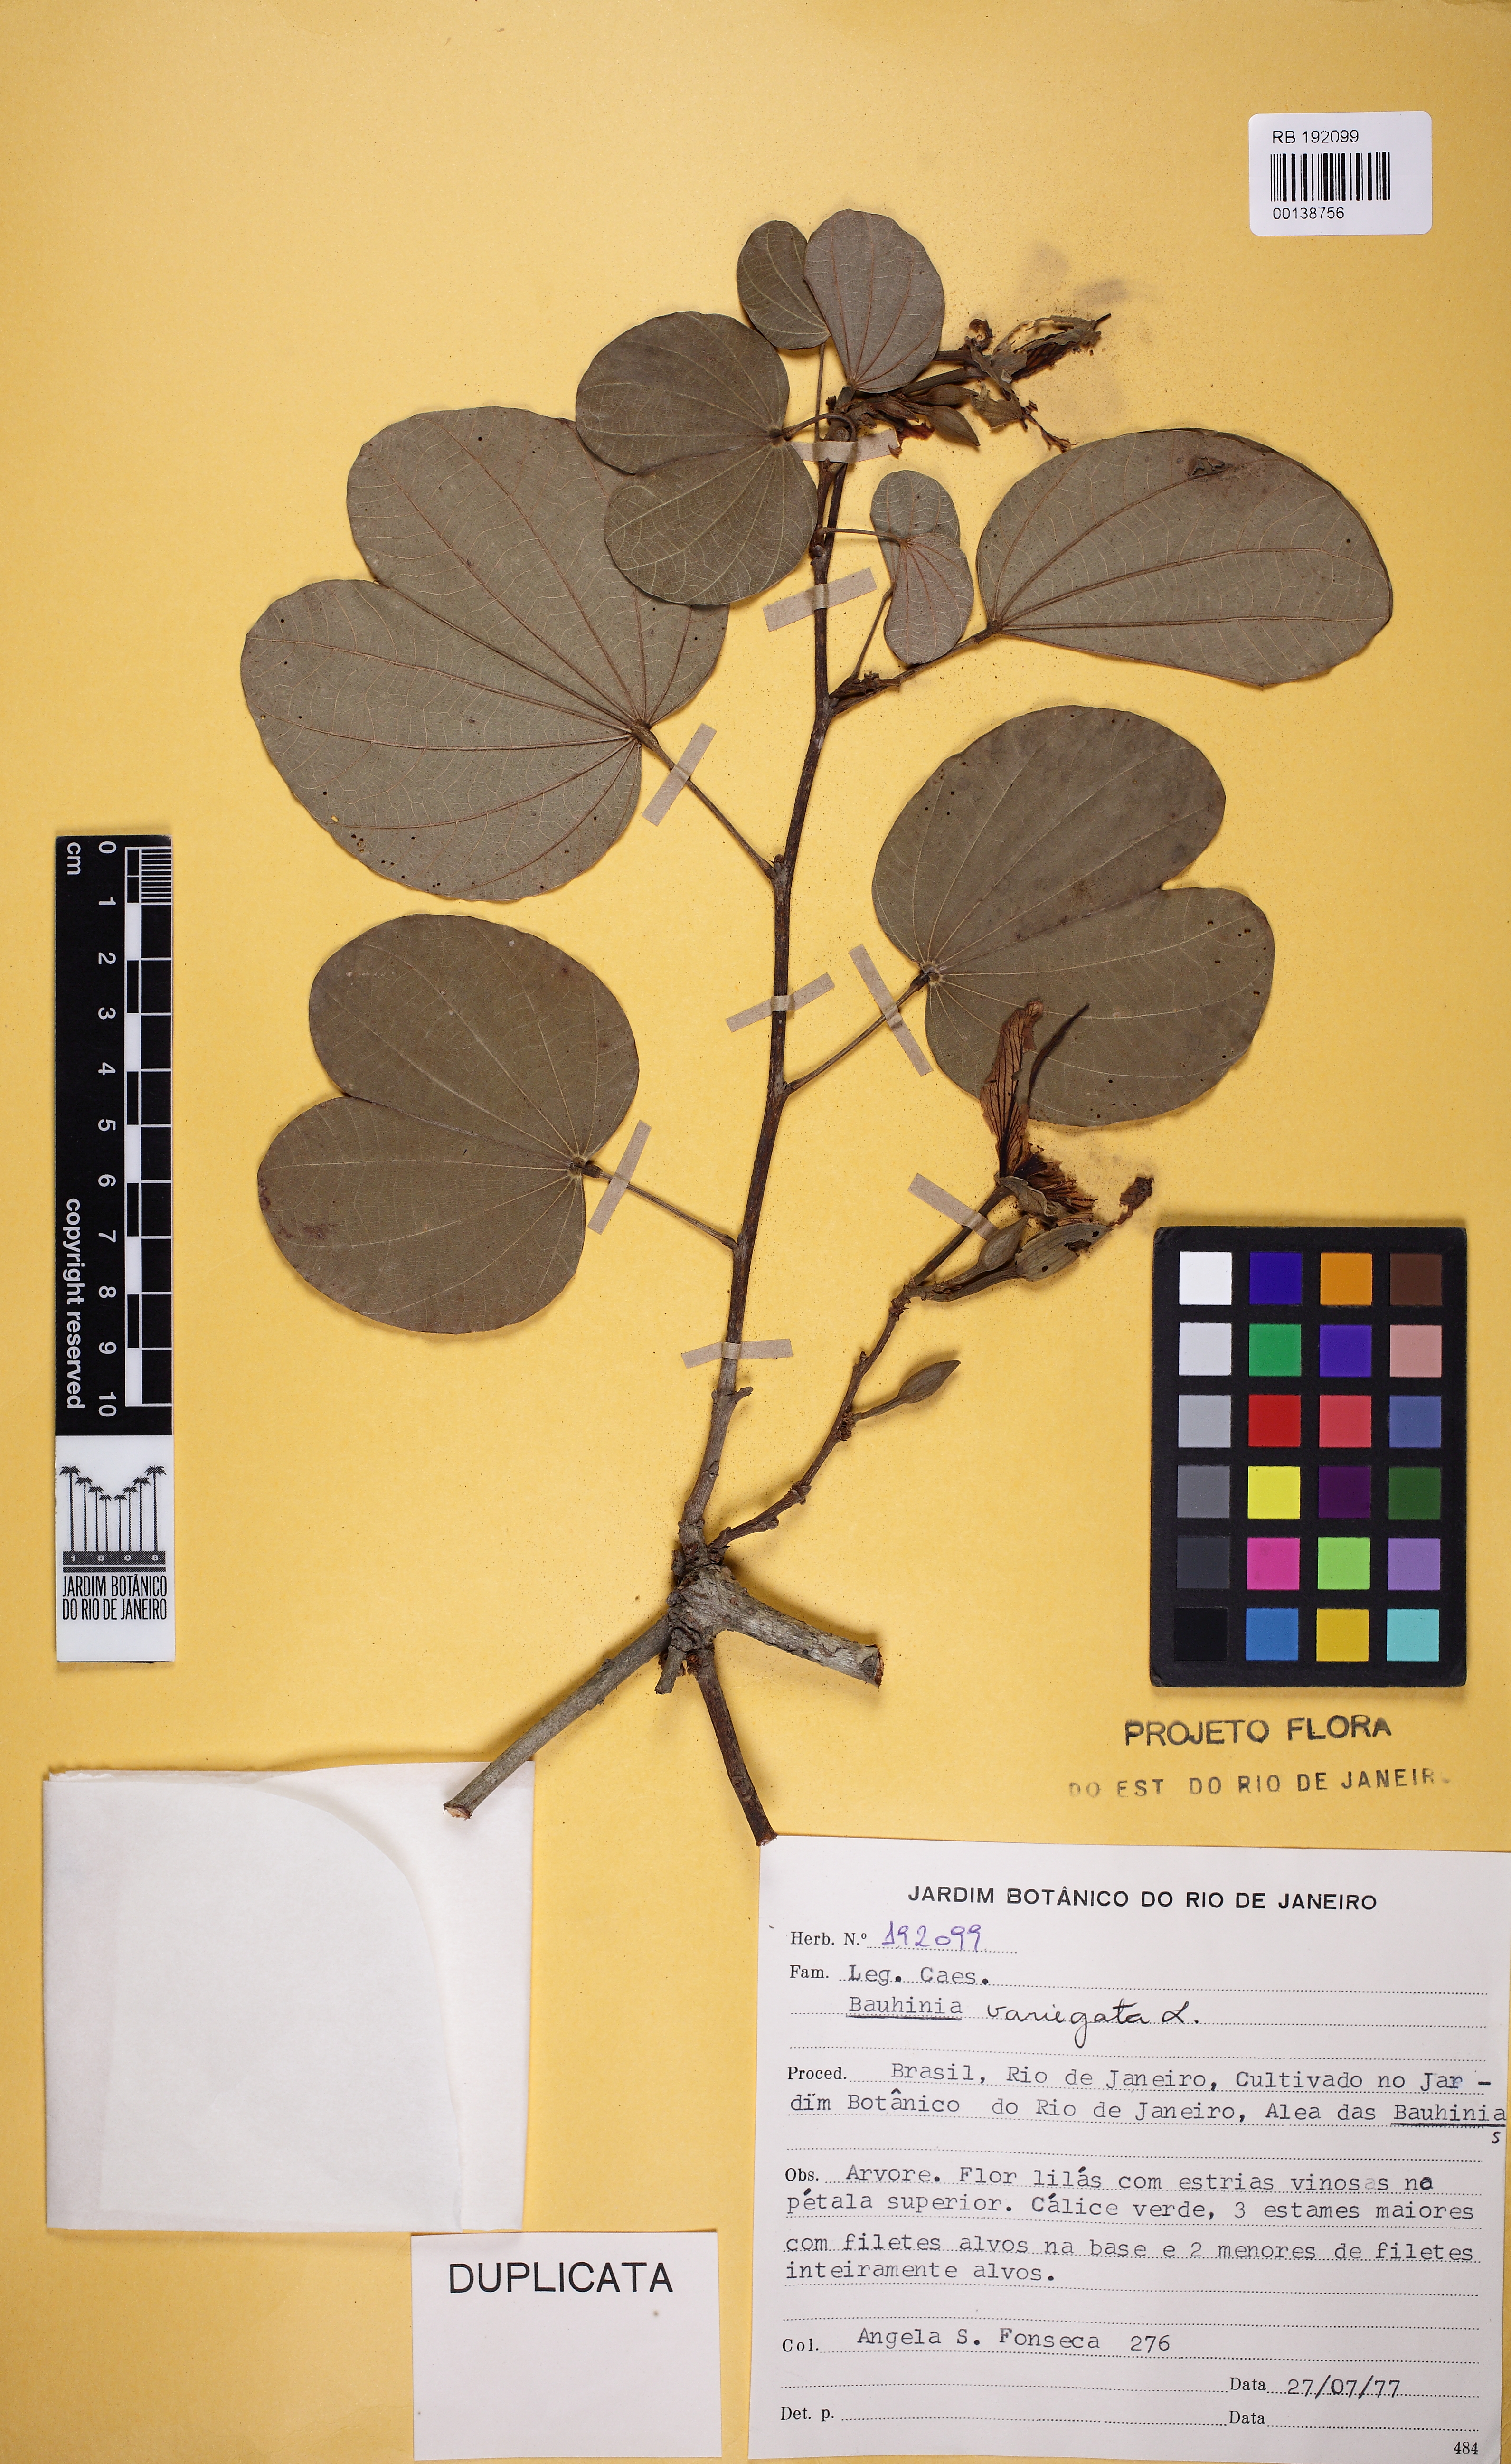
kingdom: Plantae
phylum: Tracheophyta
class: Magnoliopsida
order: Fabales
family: Fabaceae
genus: Bauhinia
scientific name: Bauhinia variegata
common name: Mountain ebony
